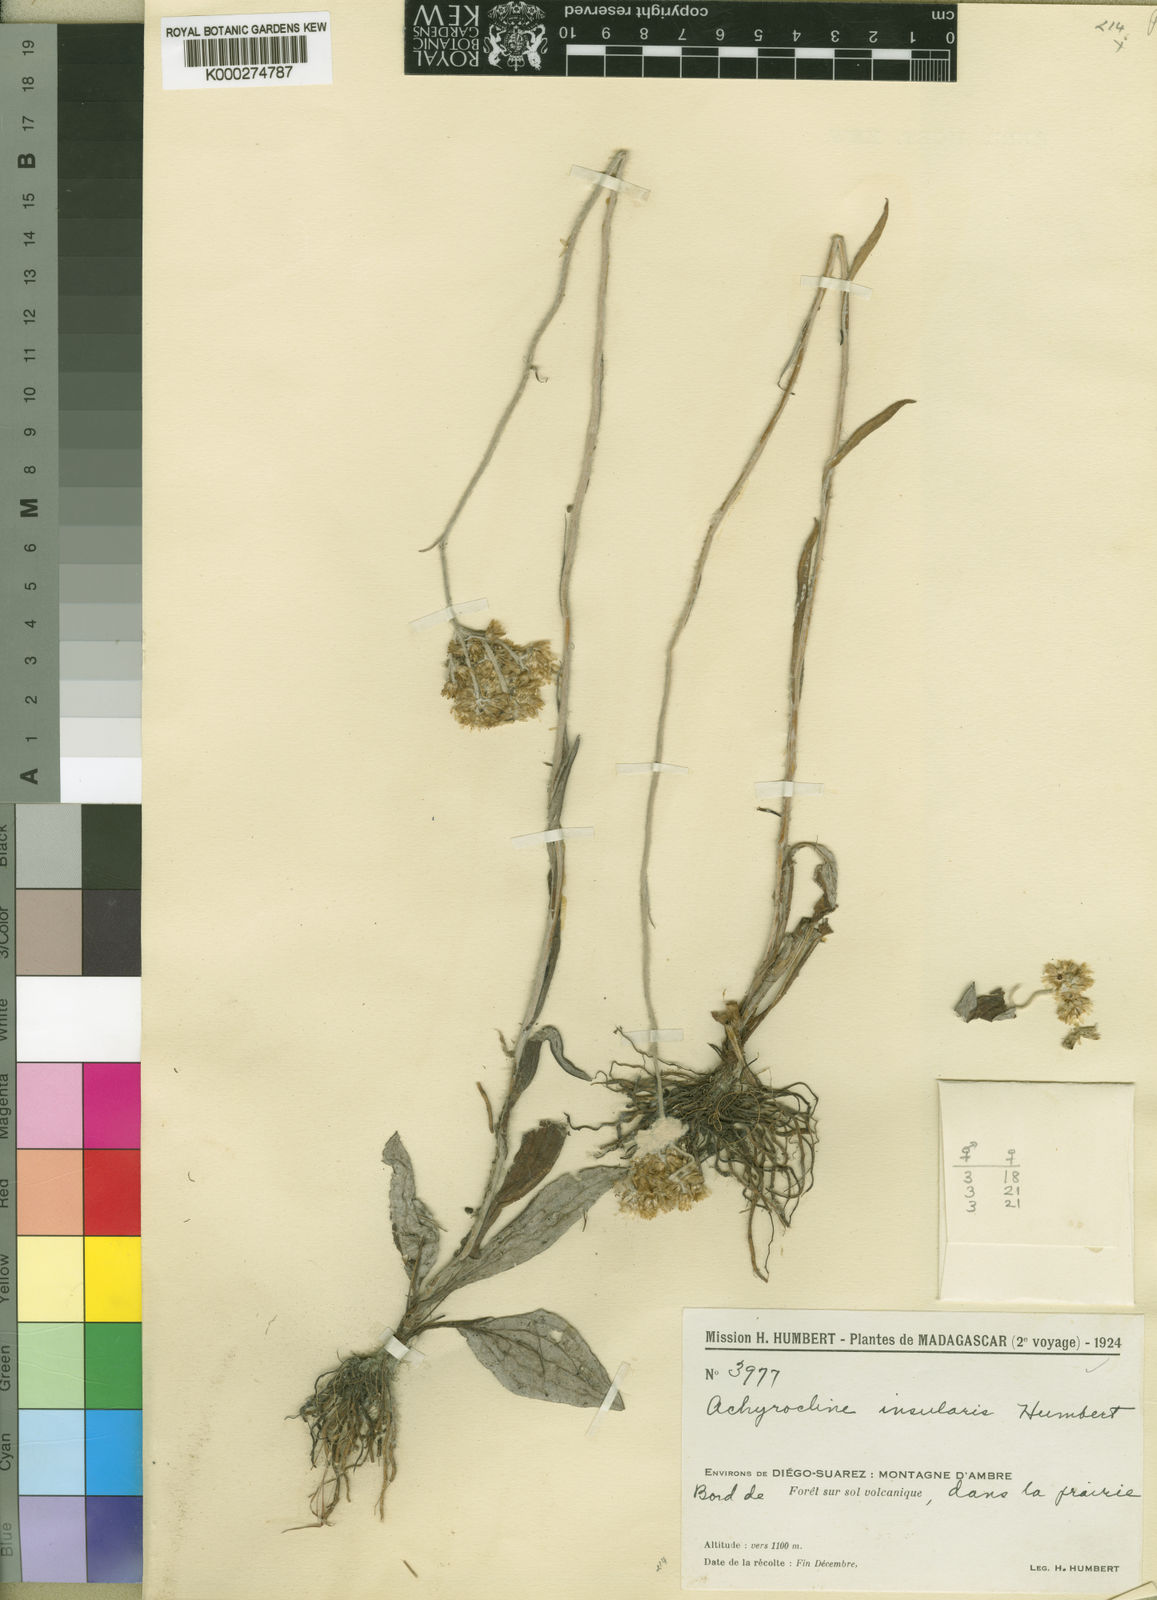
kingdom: Plantae
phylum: Tracheophyta
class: Magnoliopsida
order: Asterales
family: Asteraceae
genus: Helichrysum
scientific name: Helichrysum
